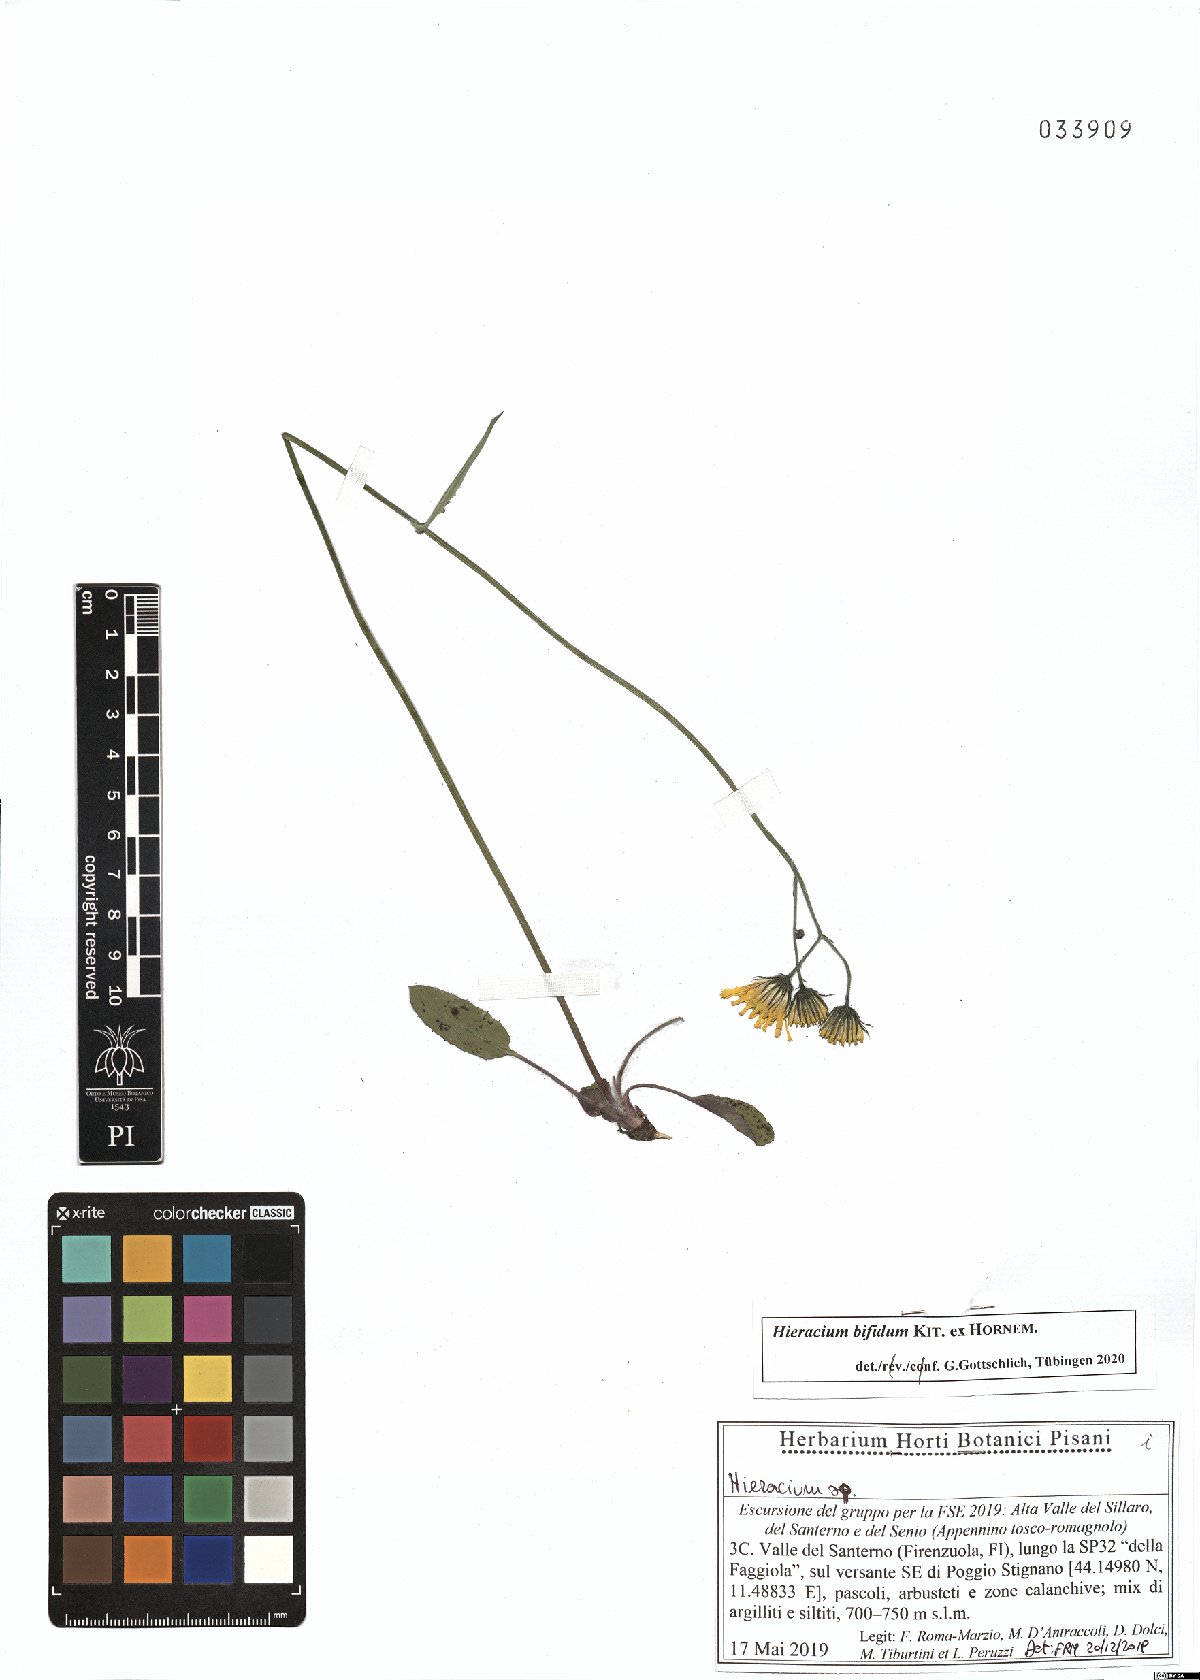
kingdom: Plantae
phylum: Tracheophyta
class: Magnoliopsida
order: Asterales
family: Asteraceae
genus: Hieracium
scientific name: Hieracium bifidum
